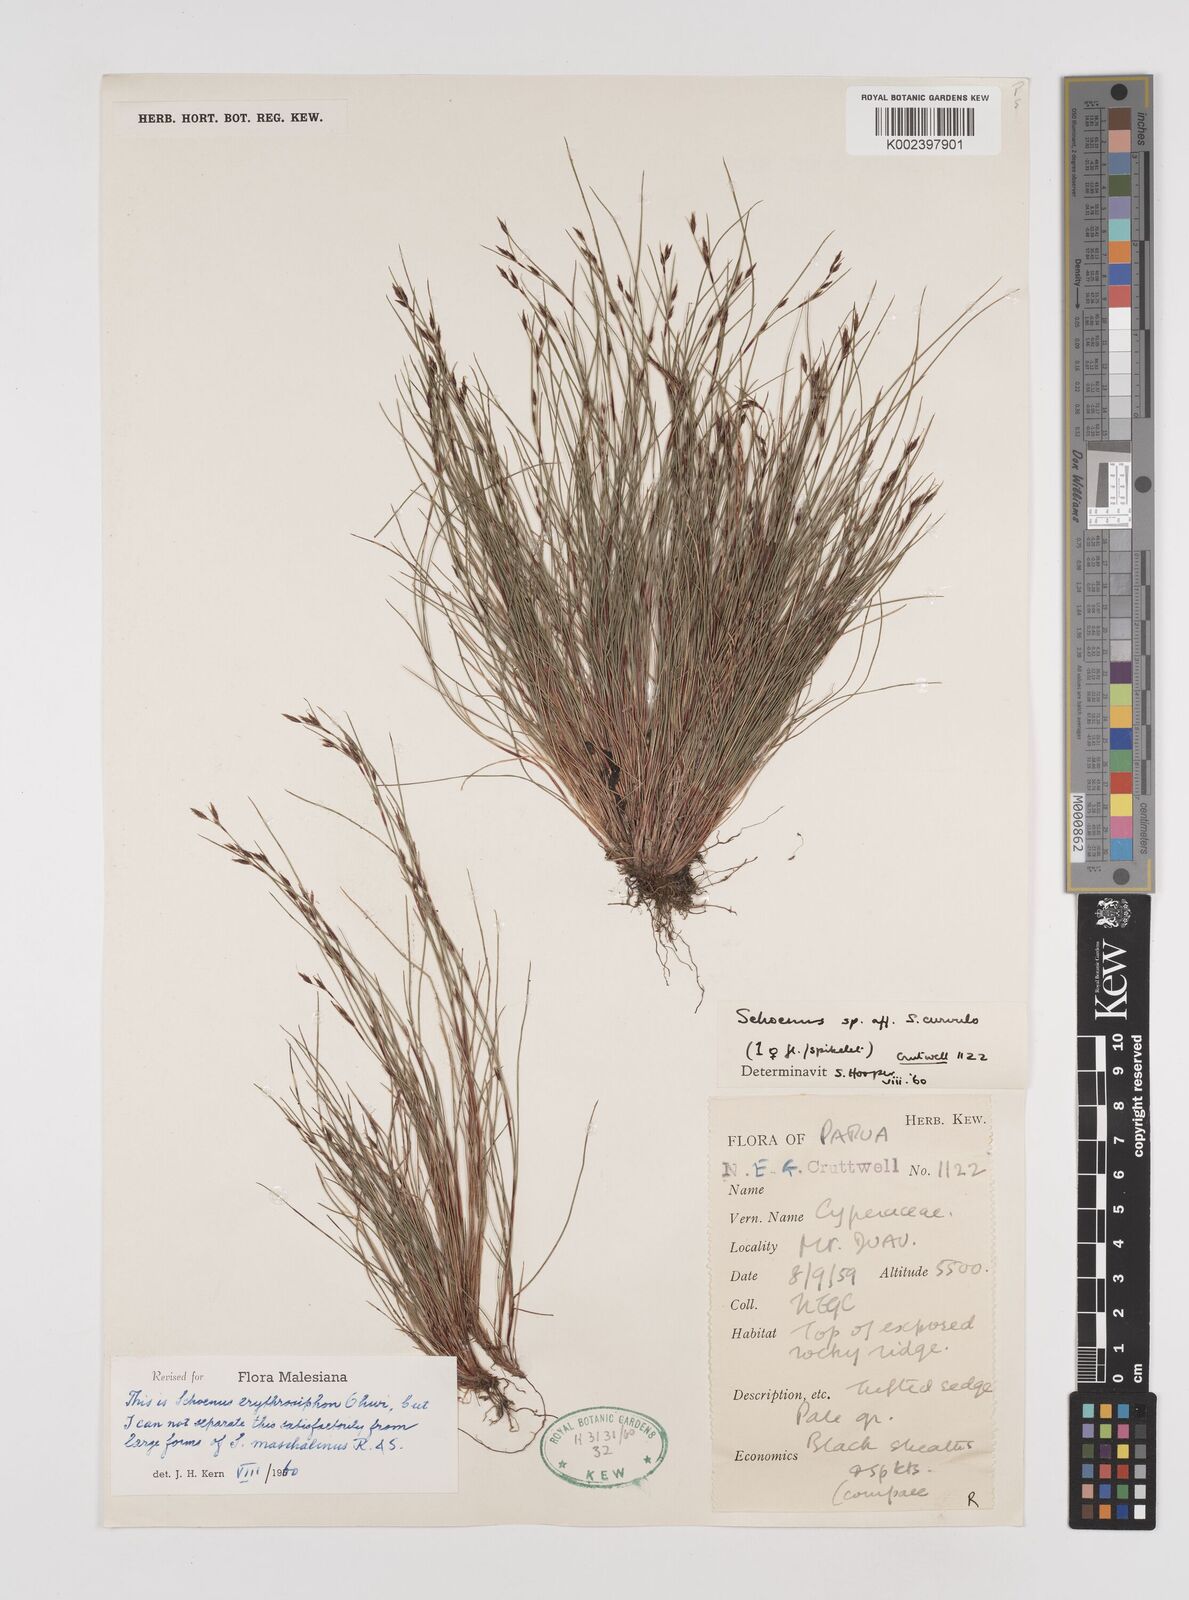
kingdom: Plantae
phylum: Tracheophyta
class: Liliopsida
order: Poales
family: Cyperaceae
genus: Schoenus
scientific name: Schoenus maschalinus
